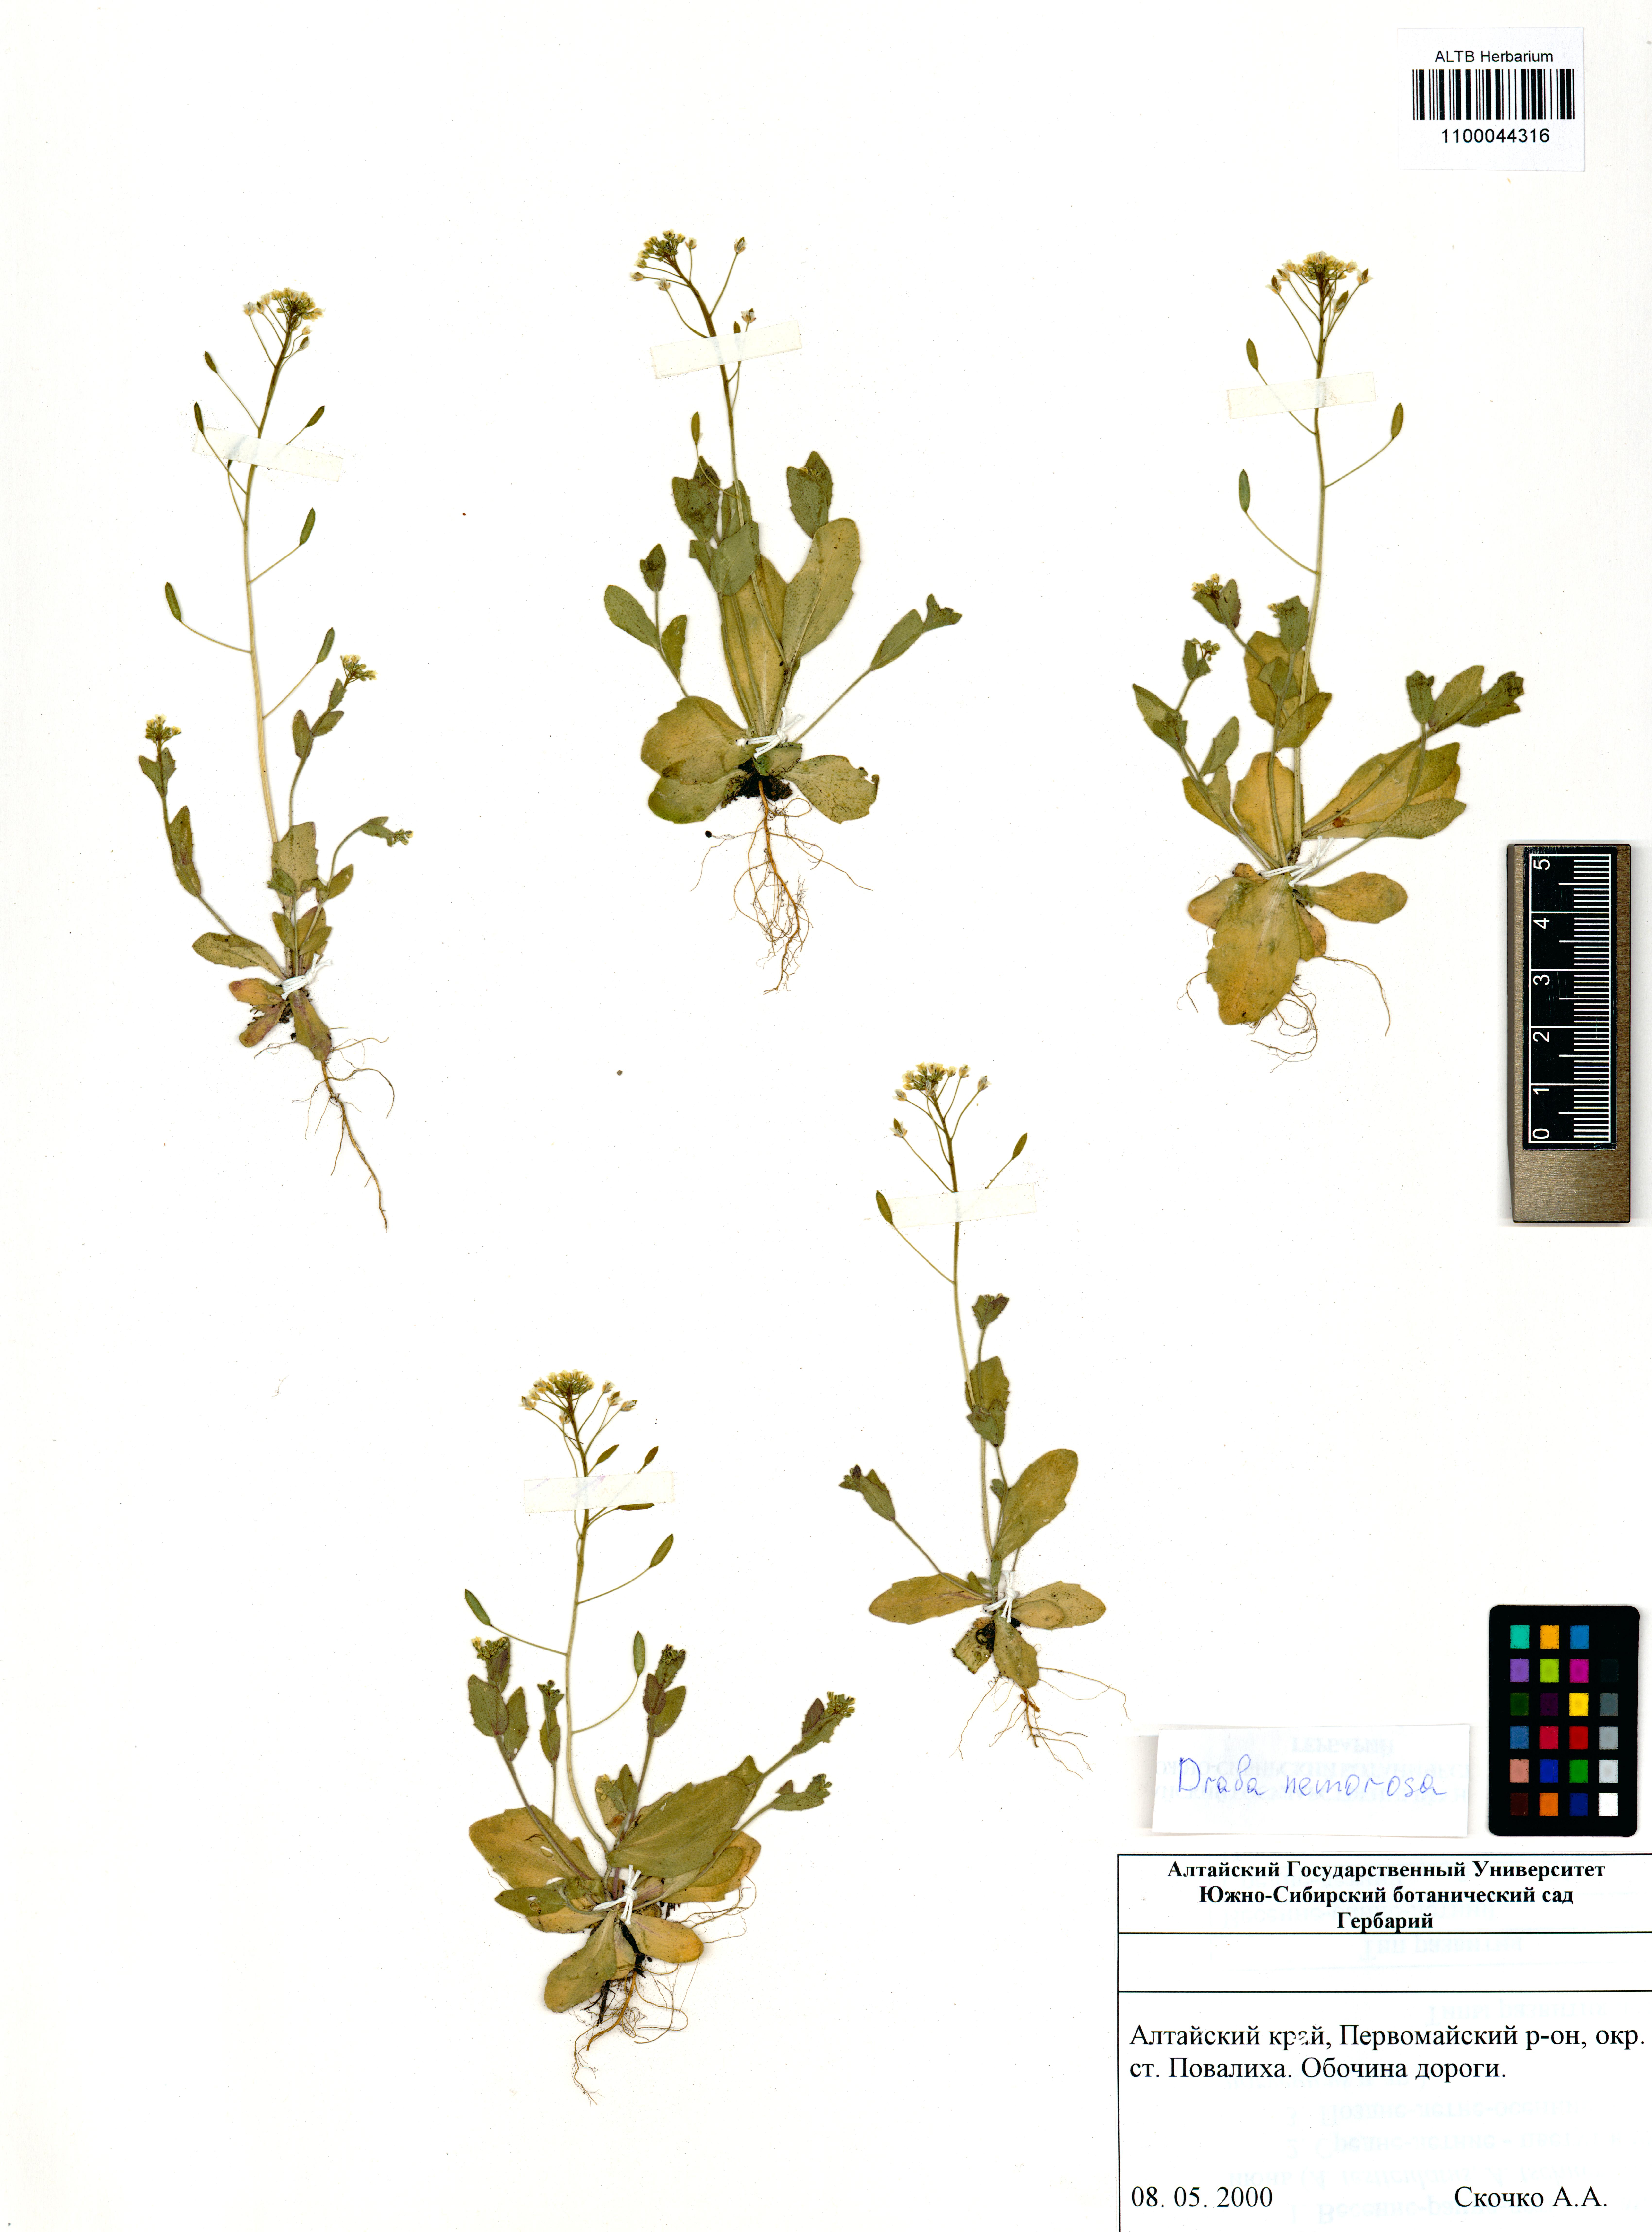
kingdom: Plantae
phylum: Tracheophyta
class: Magnoliopsida
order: Brassicales
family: Brassicaceae
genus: Draba
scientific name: Draba nemorosa
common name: Wood whitlow-grass
